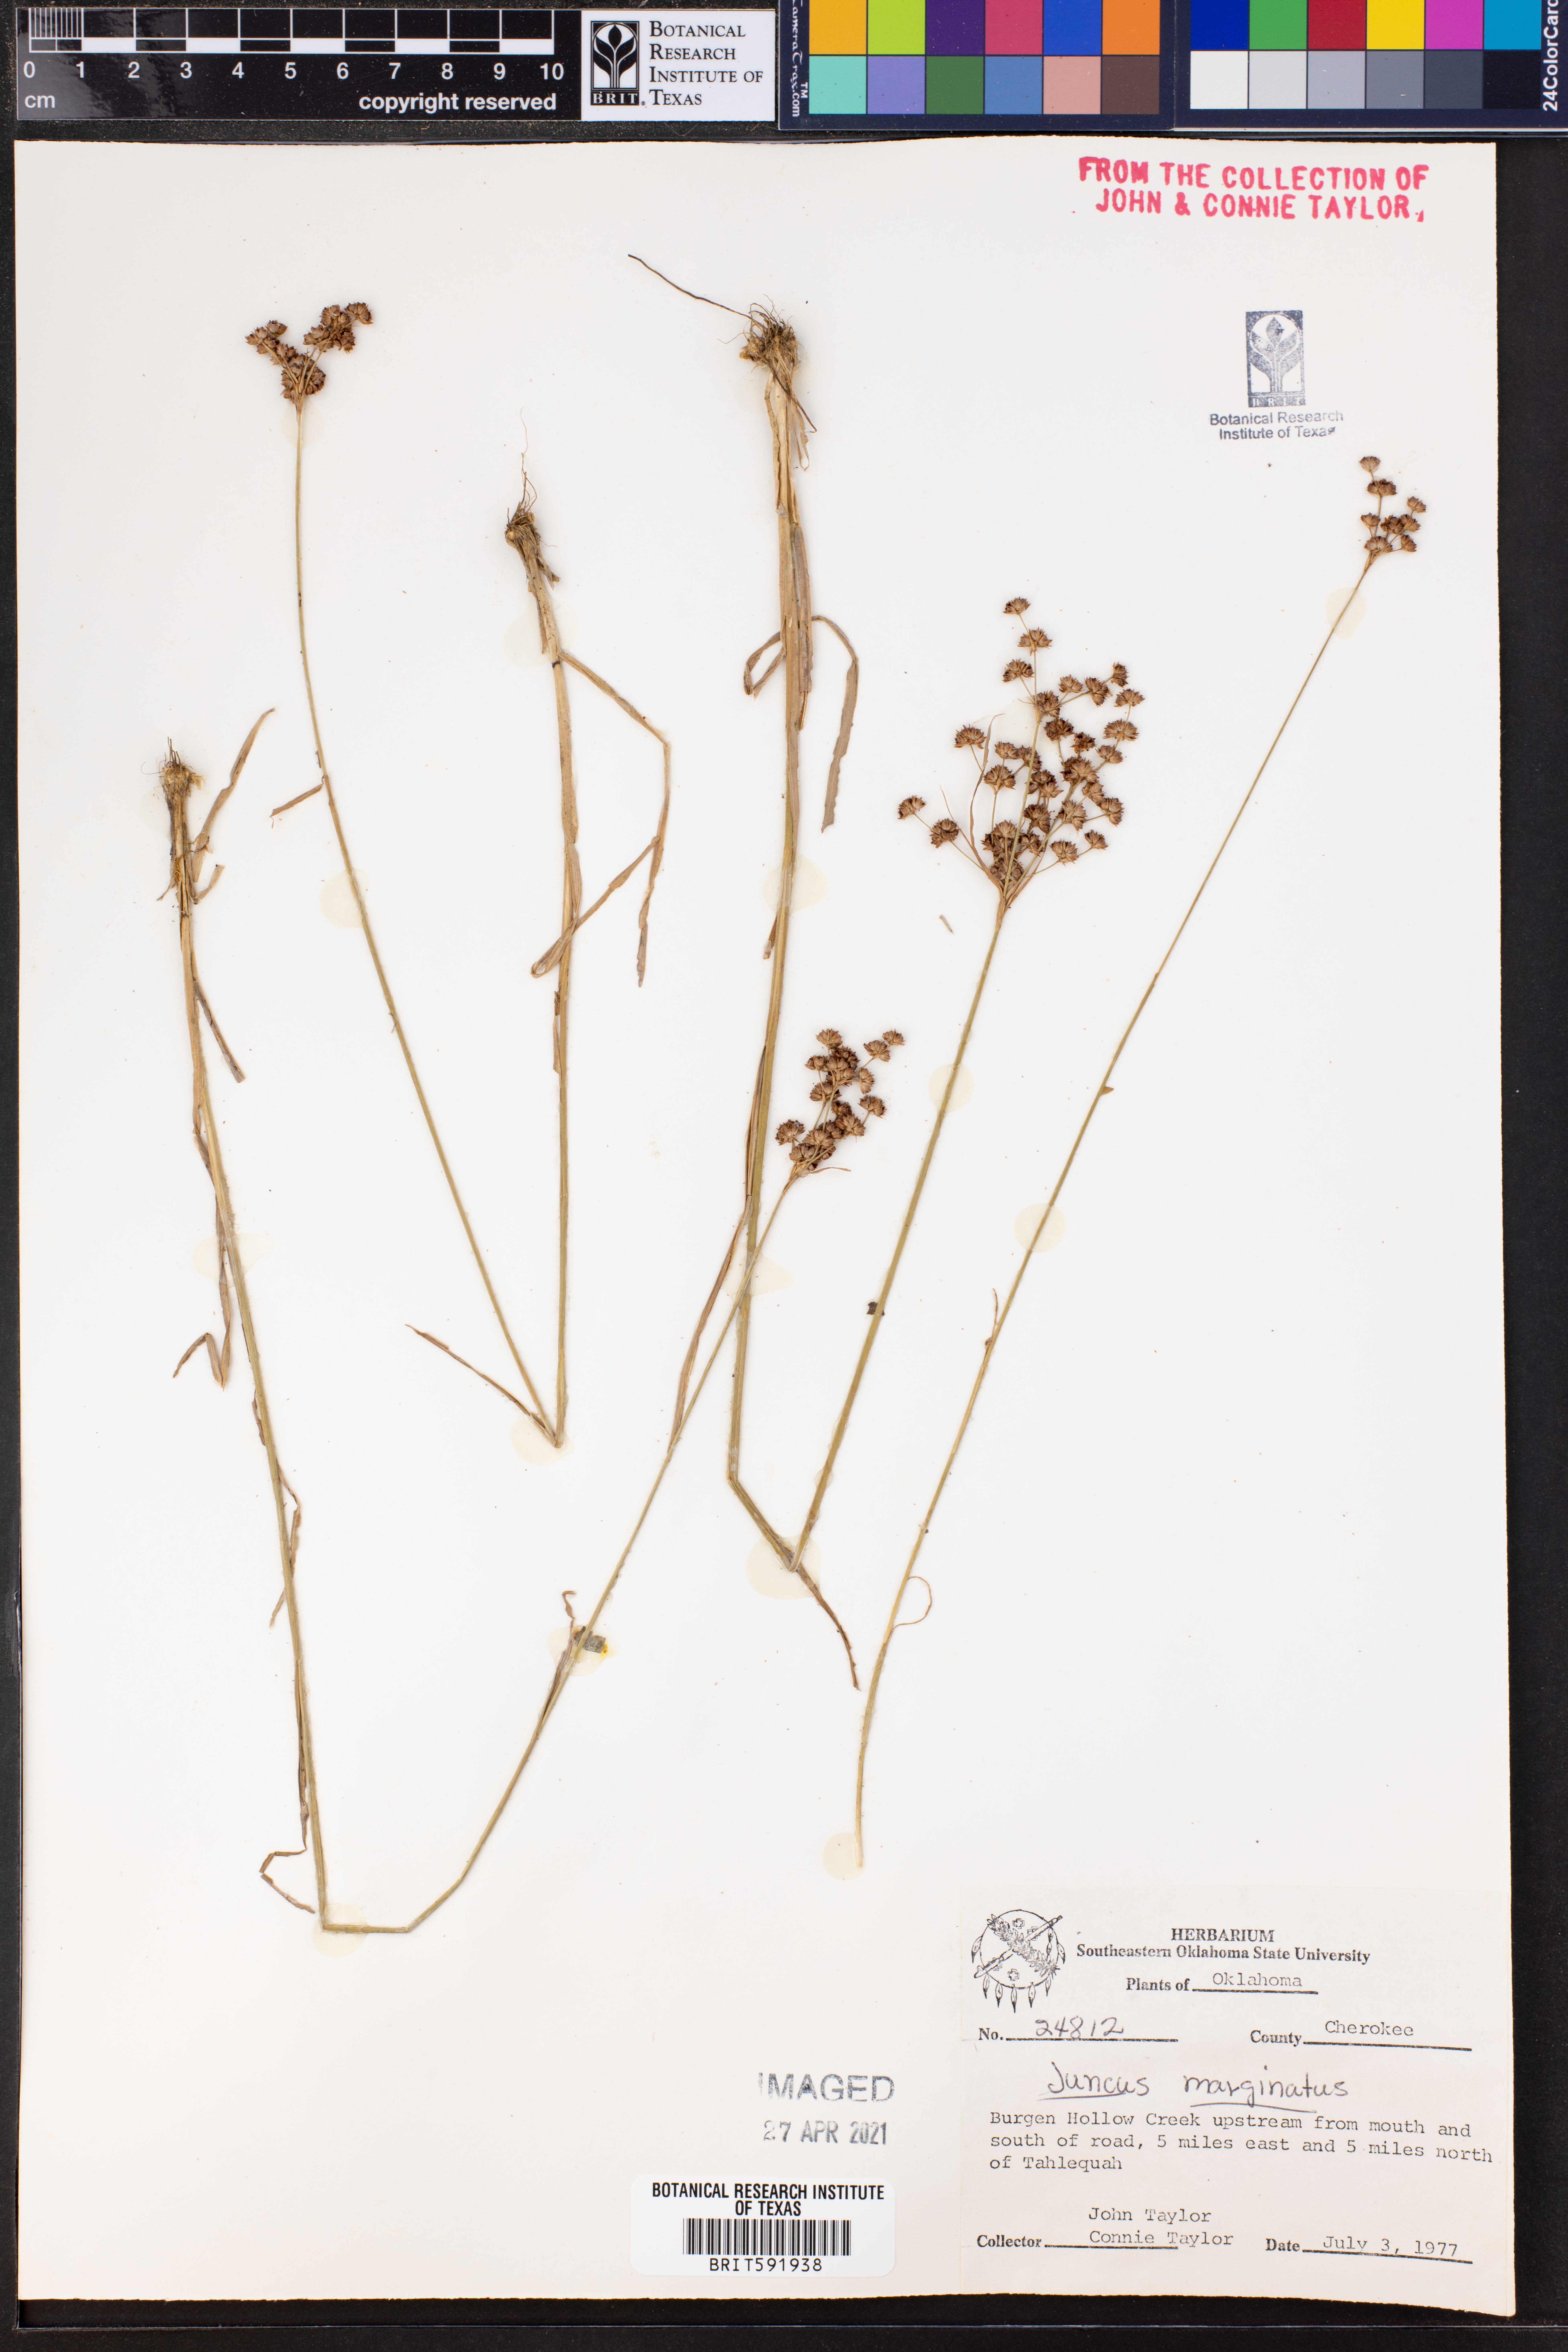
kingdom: Plantae
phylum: Tracheophyta
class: Liliopsida
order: Poales
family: Juncaceae
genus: Juncus
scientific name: Juncus marginatus
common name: Grass-leaf rush
